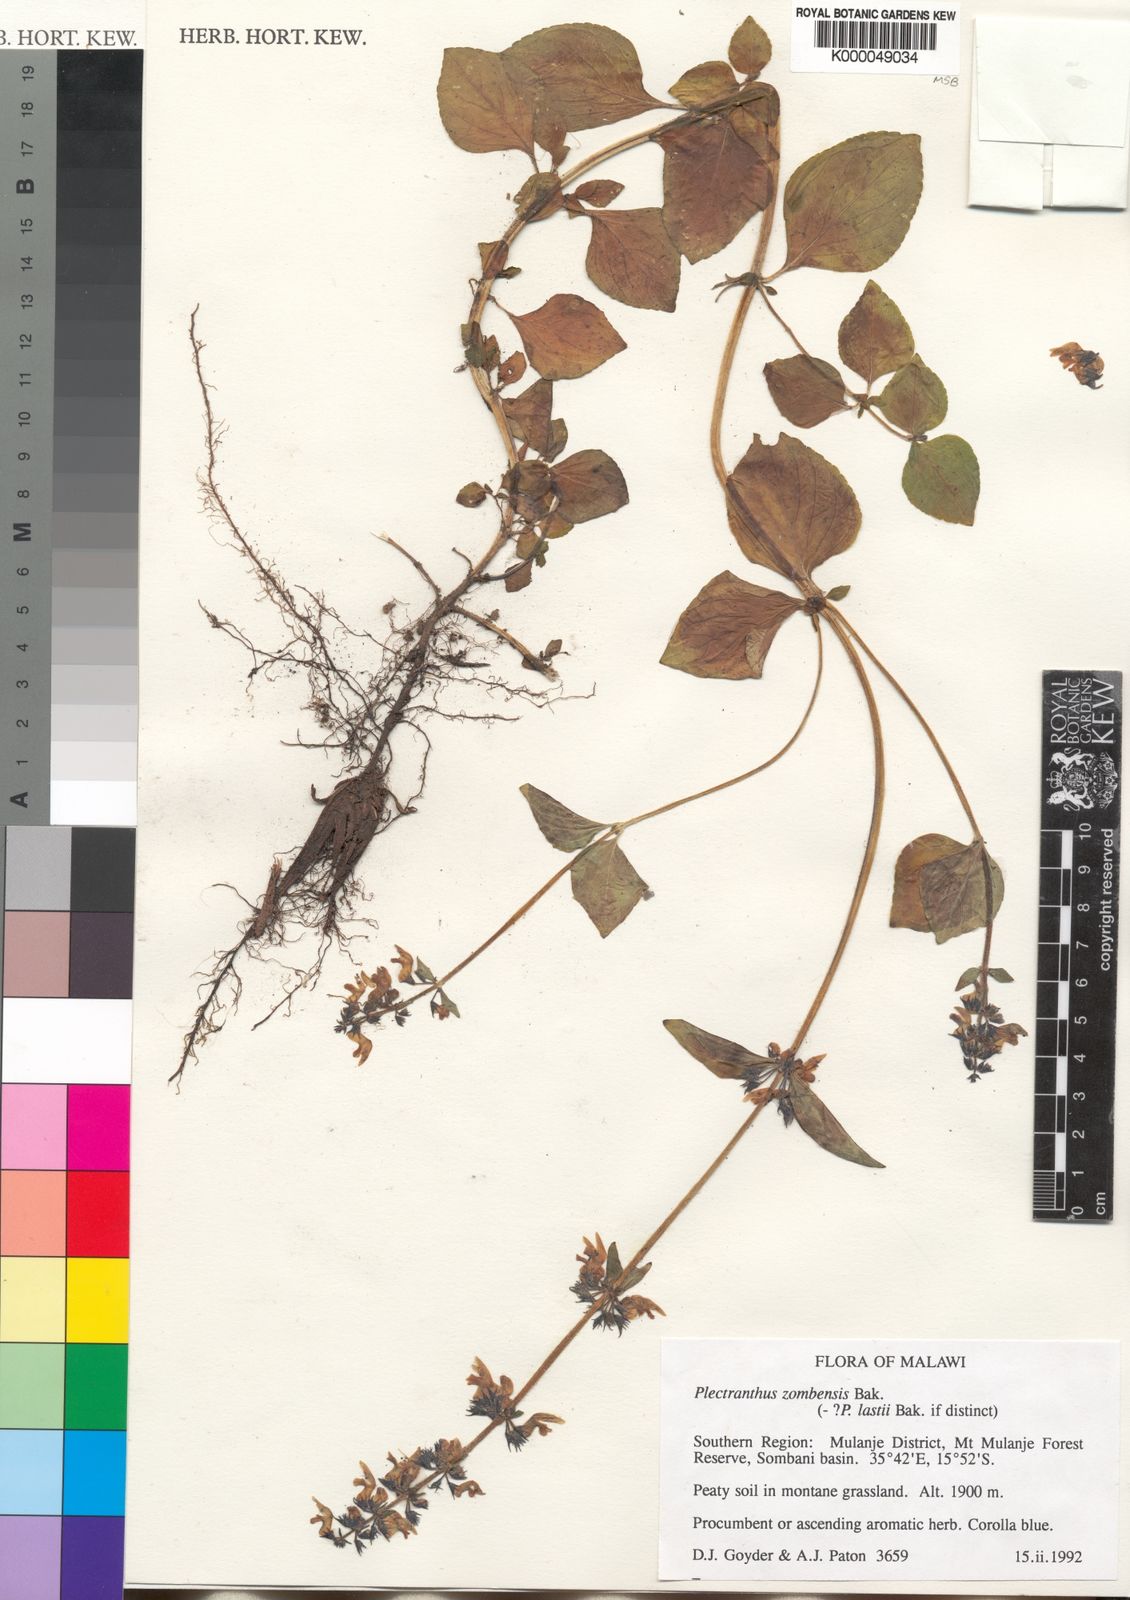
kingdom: Plantae
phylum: Tracheophyta
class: Magnoliopsida
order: Lamiales
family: Lamiaceae
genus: Coleus
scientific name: Coleus zombensis
